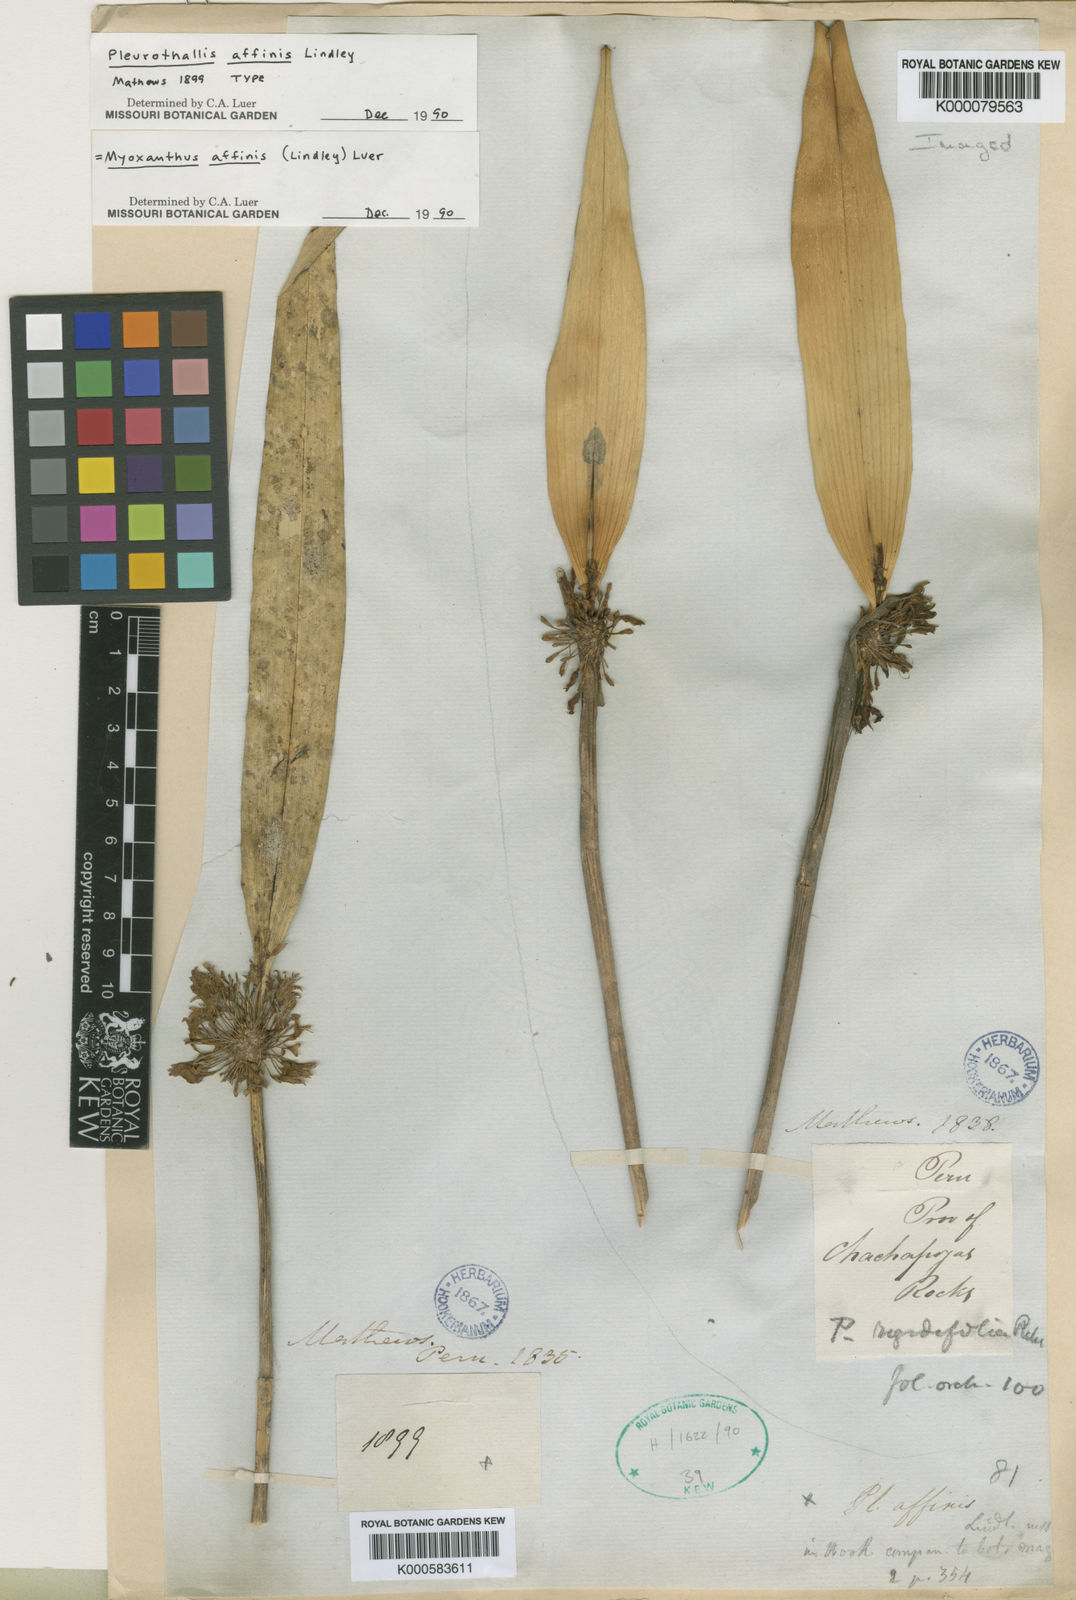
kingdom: Plantae
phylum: Tracheophyta
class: Liliopsida
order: Asparagales
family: Orchidaceae
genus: Myoxanthus
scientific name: Myoxanthus affinis
